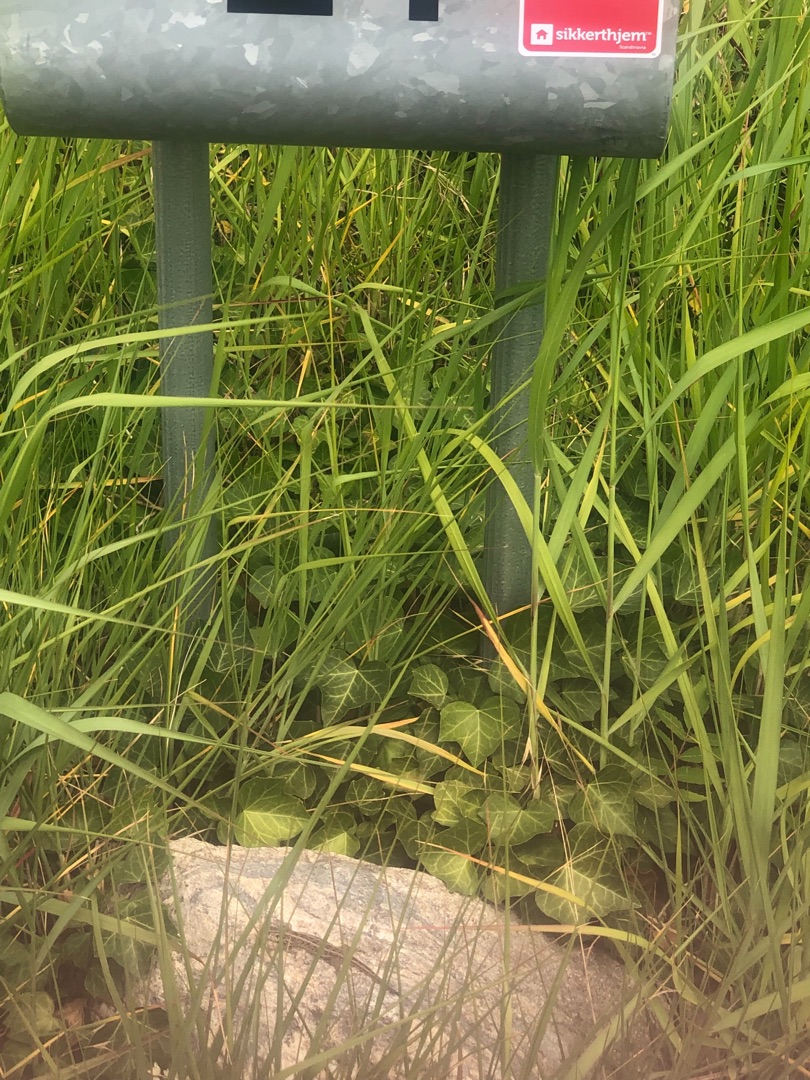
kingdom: Animalia
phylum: Chordata
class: Squamata
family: Lacertidae
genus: Lacerta
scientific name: Lacerta agilis
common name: Markfirben
